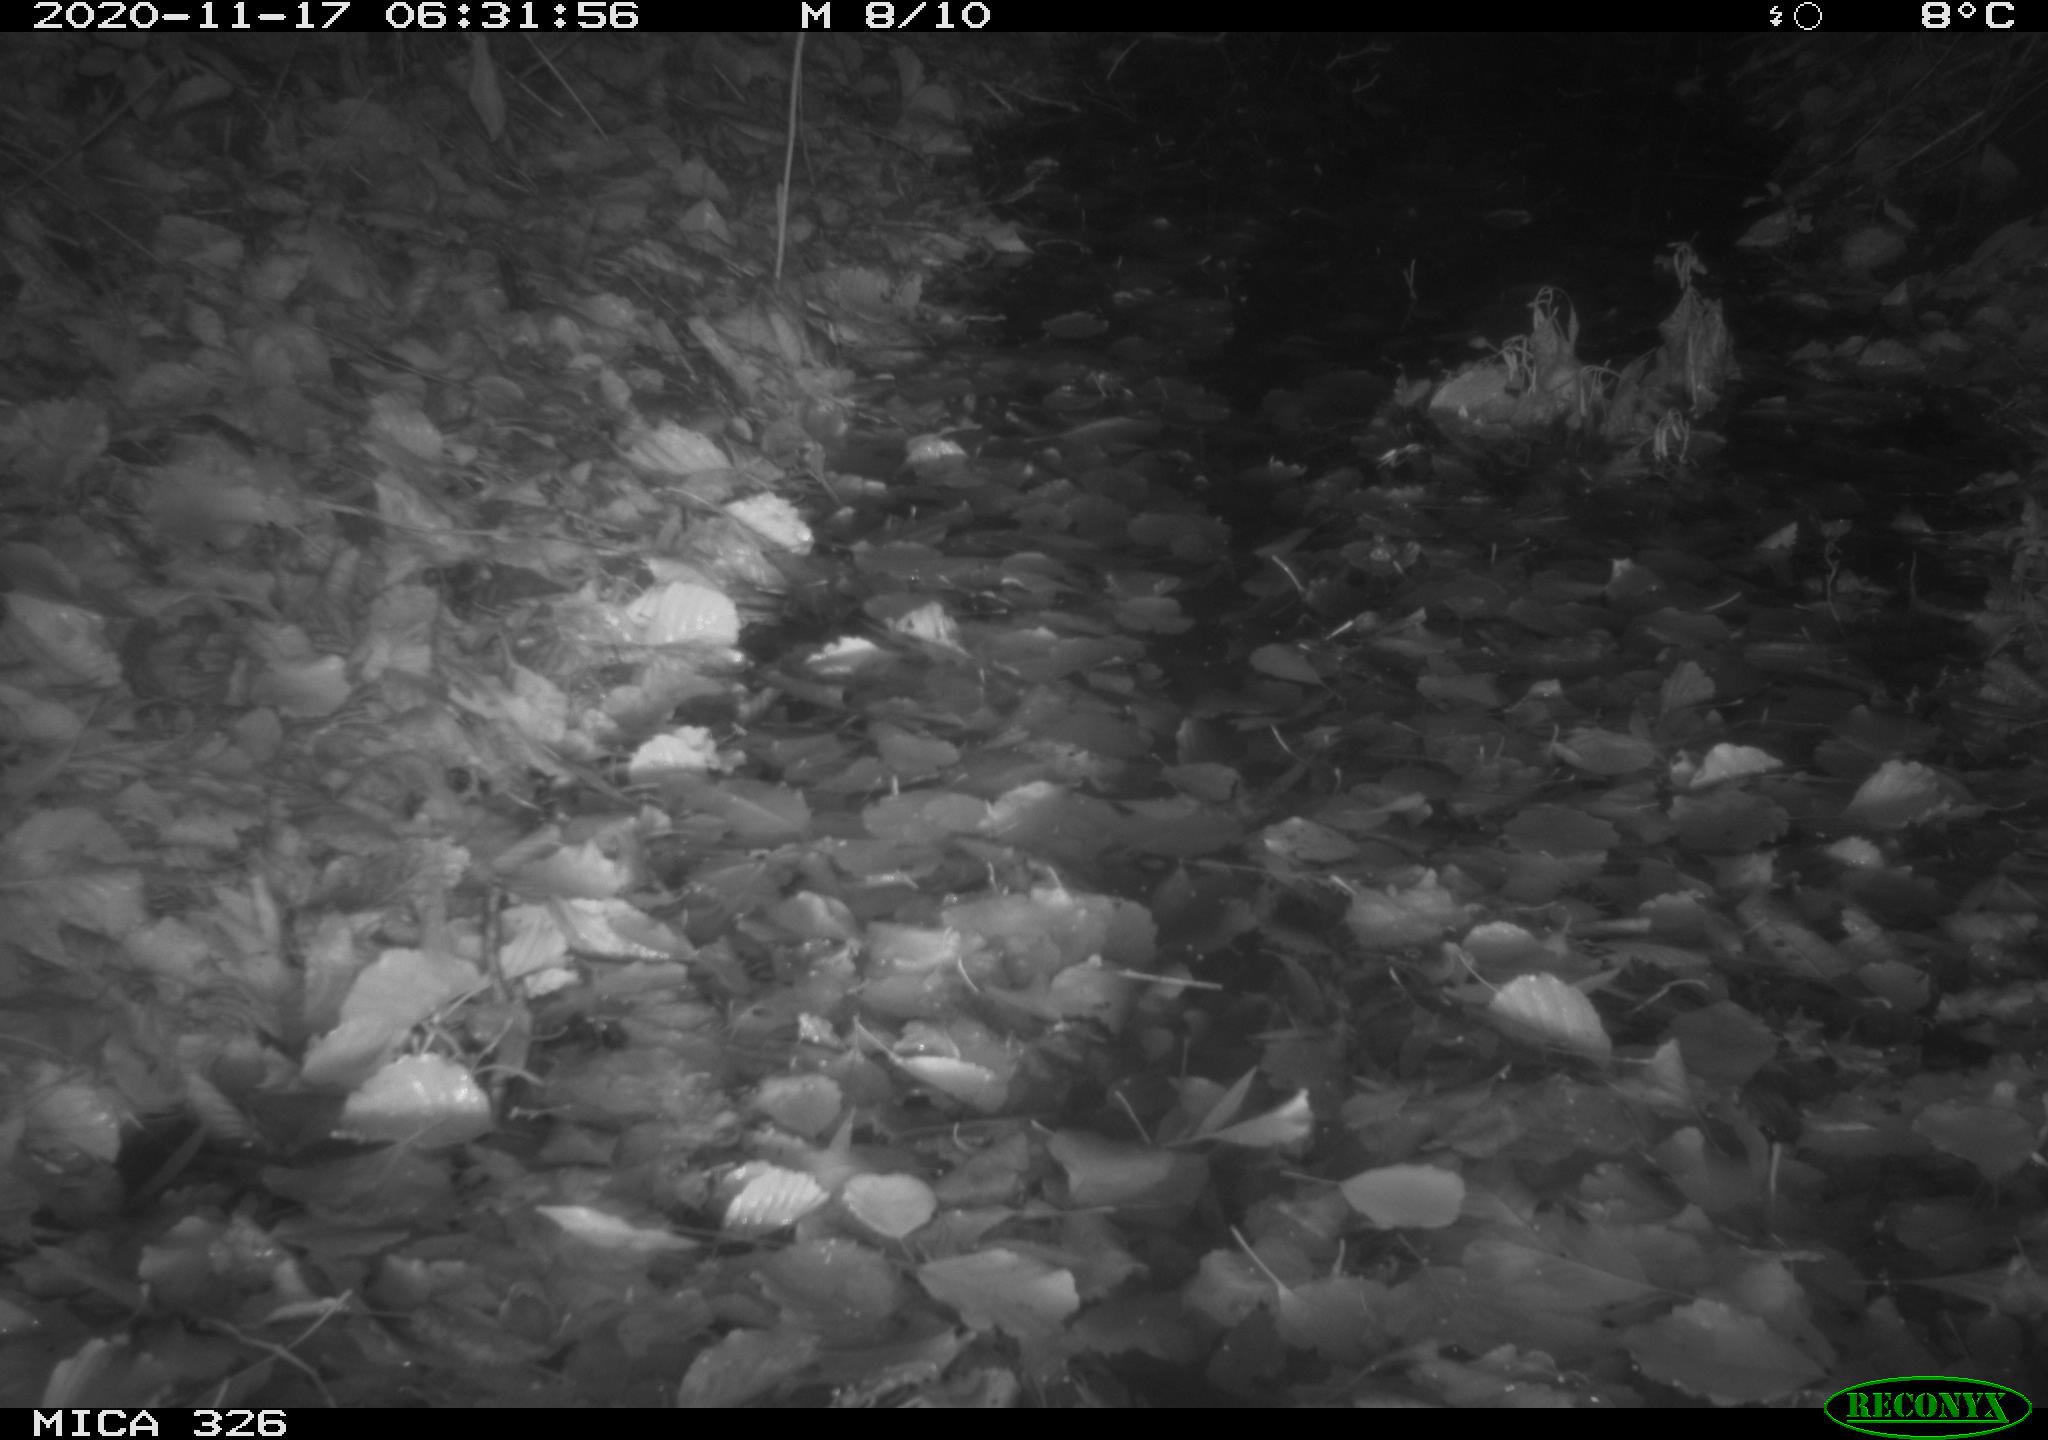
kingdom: Animalia
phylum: Chordata
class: Mammalia
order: Rodentia
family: Muridae
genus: Rattus
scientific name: Rattus norvegicus
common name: Brown rat
